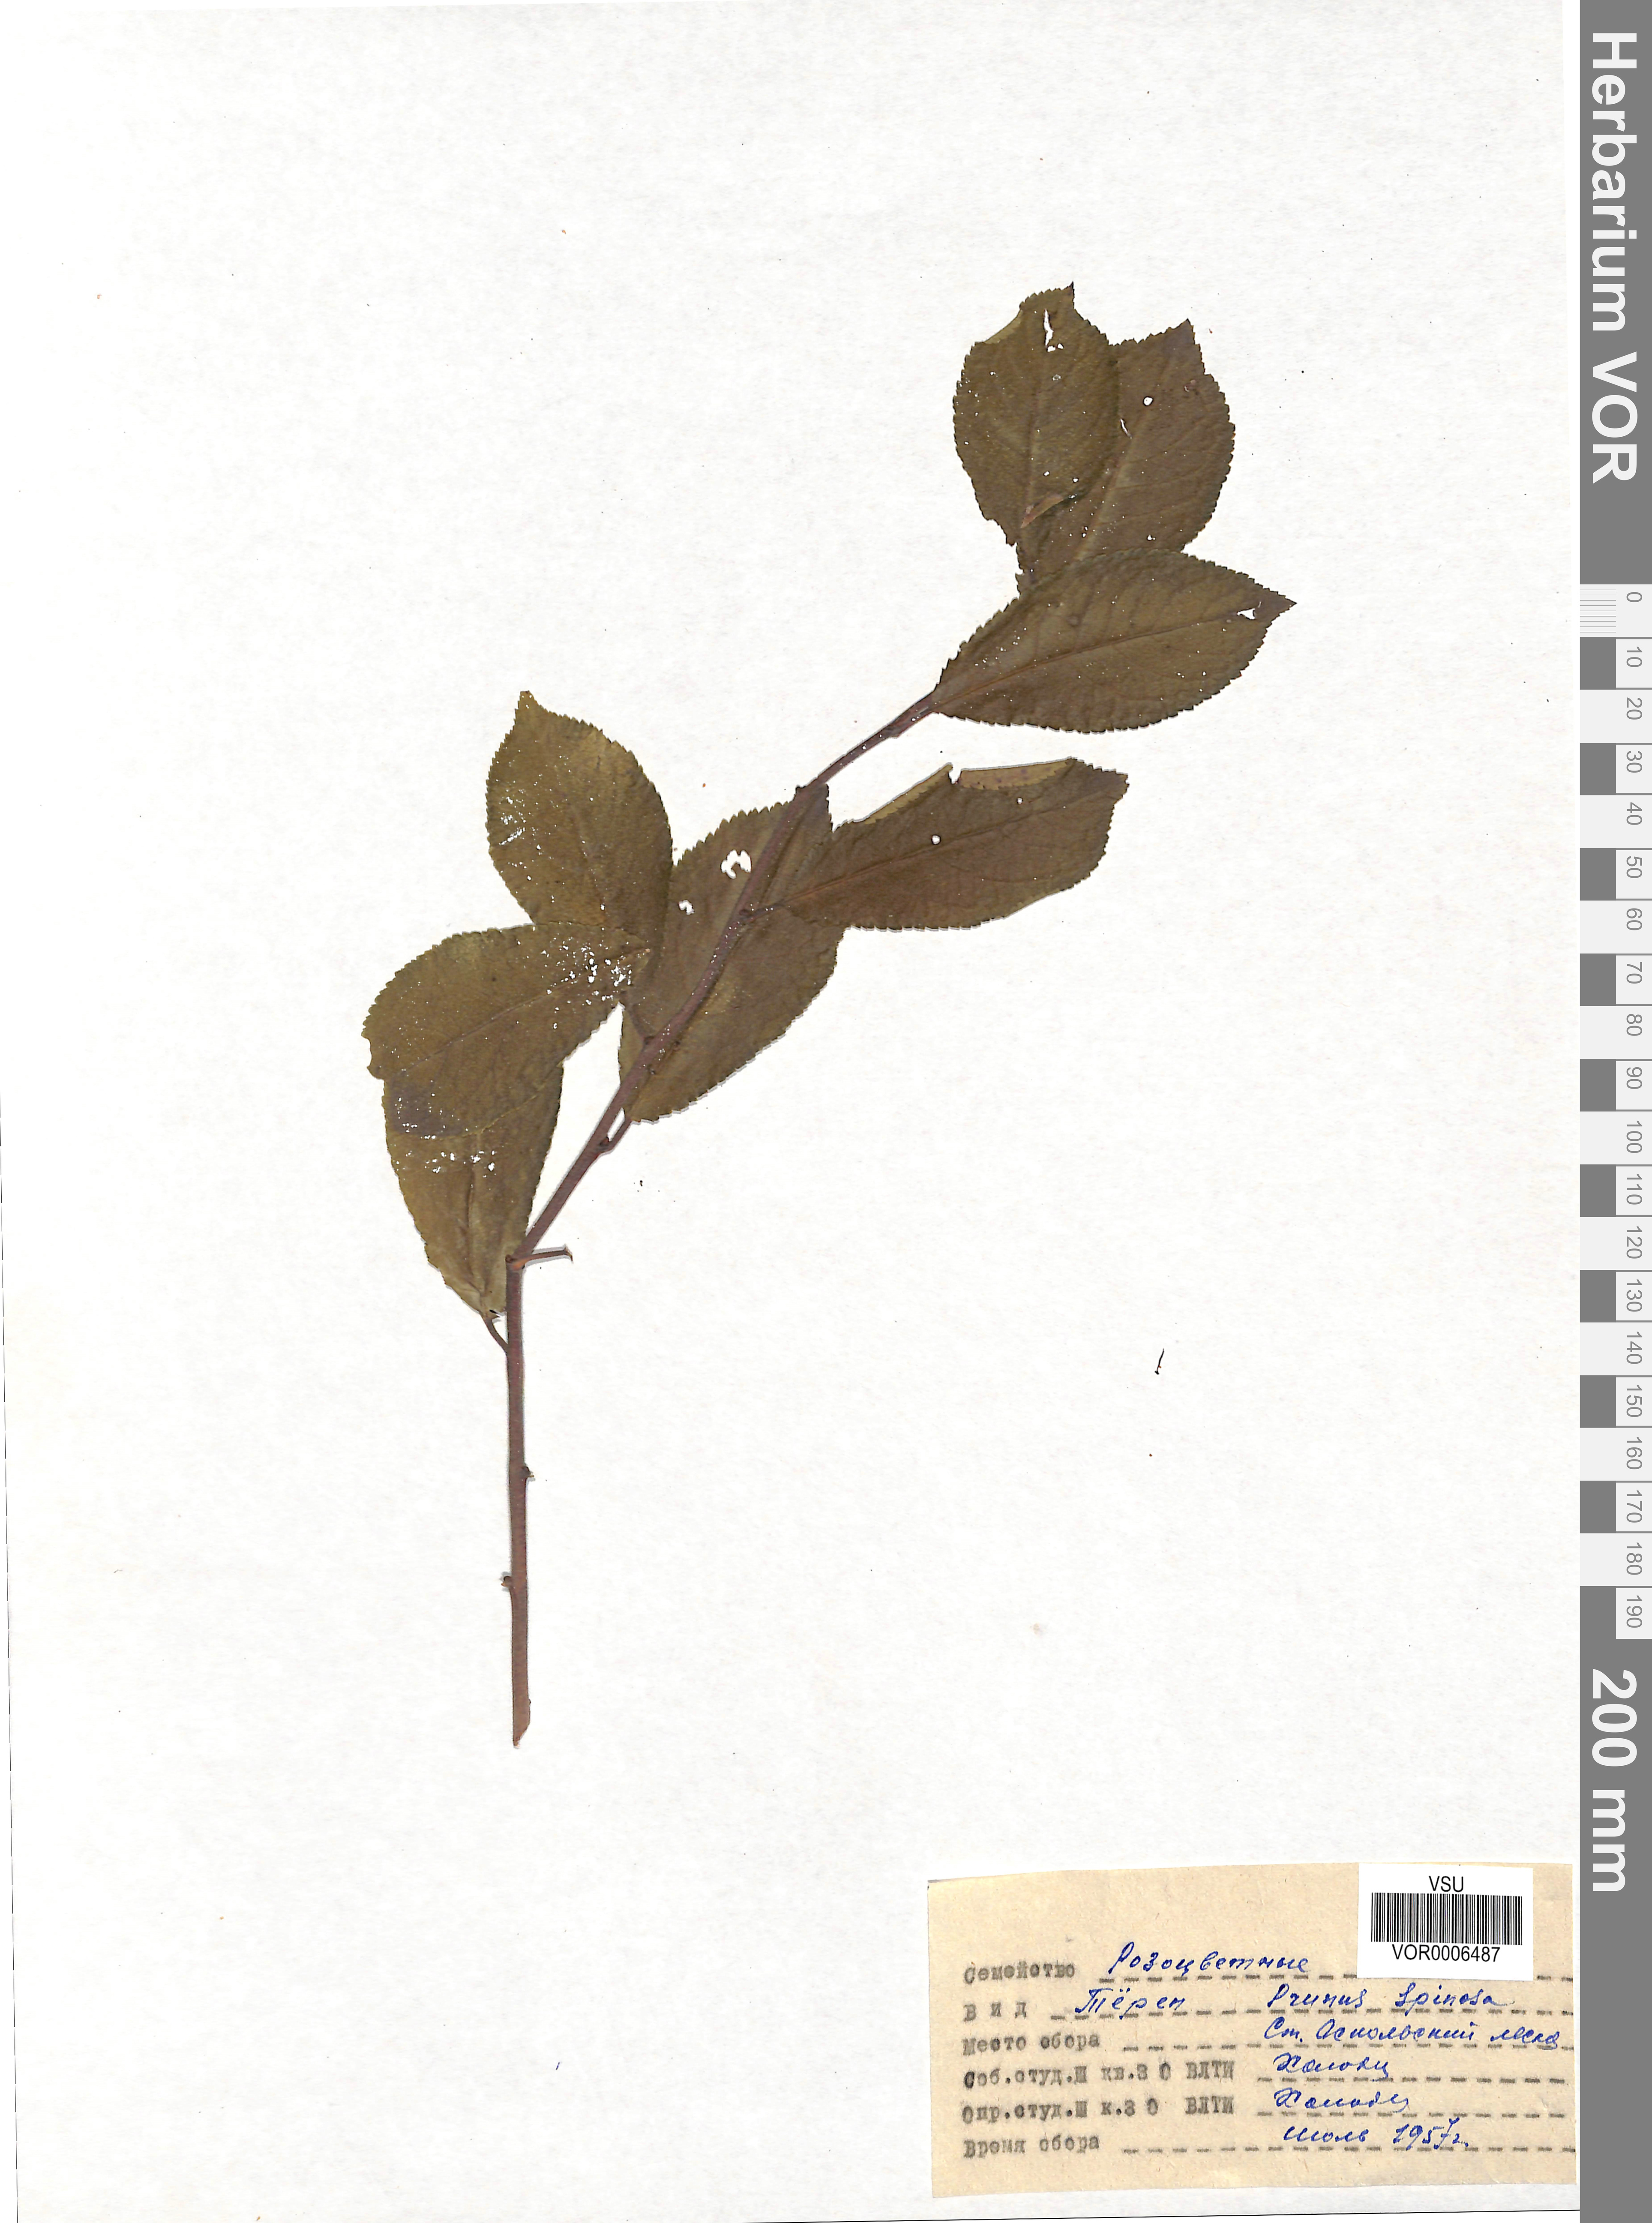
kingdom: Plantae
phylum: Tracheophyta
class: Magnoliopsida
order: Rosales
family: Rosaceae
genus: Prunus
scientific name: Prunus spinosa
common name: Blackthorn
